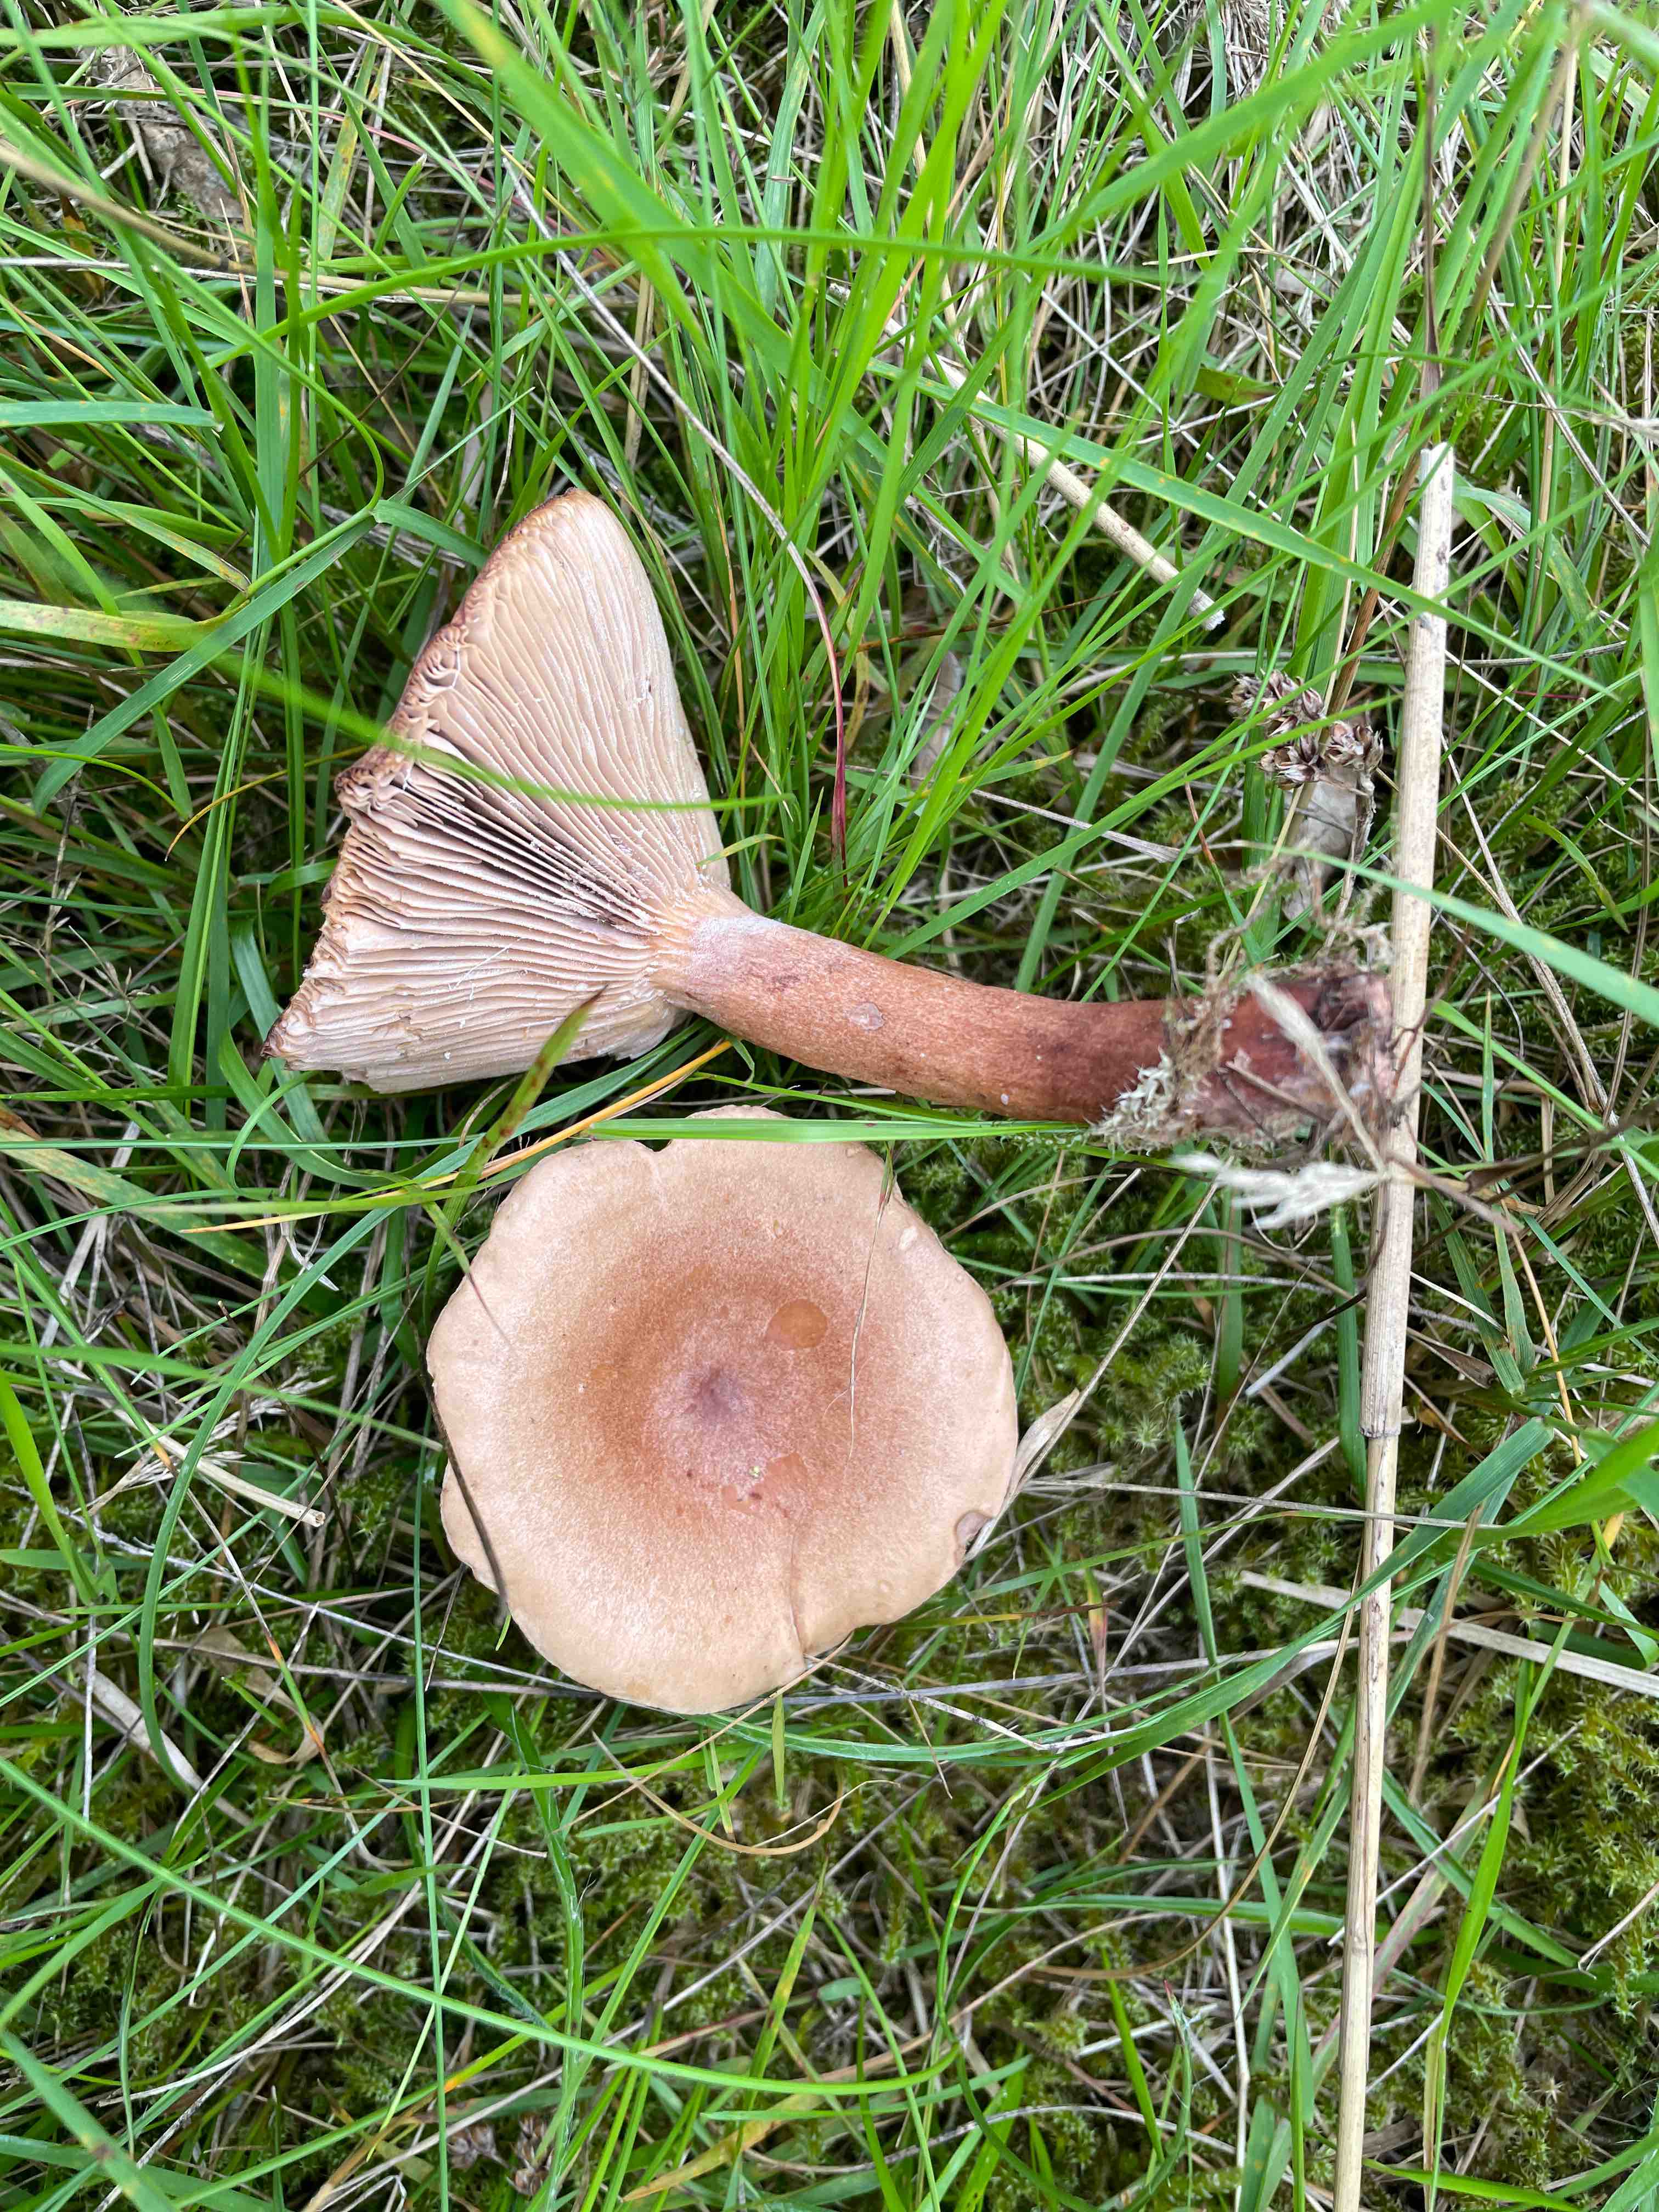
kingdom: Fungi
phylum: Basidiomycota
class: Agaricomycetes
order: Russulales
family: Russulaceae
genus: Lactarius
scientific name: Lactarius quietus
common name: ege-mælkehat
